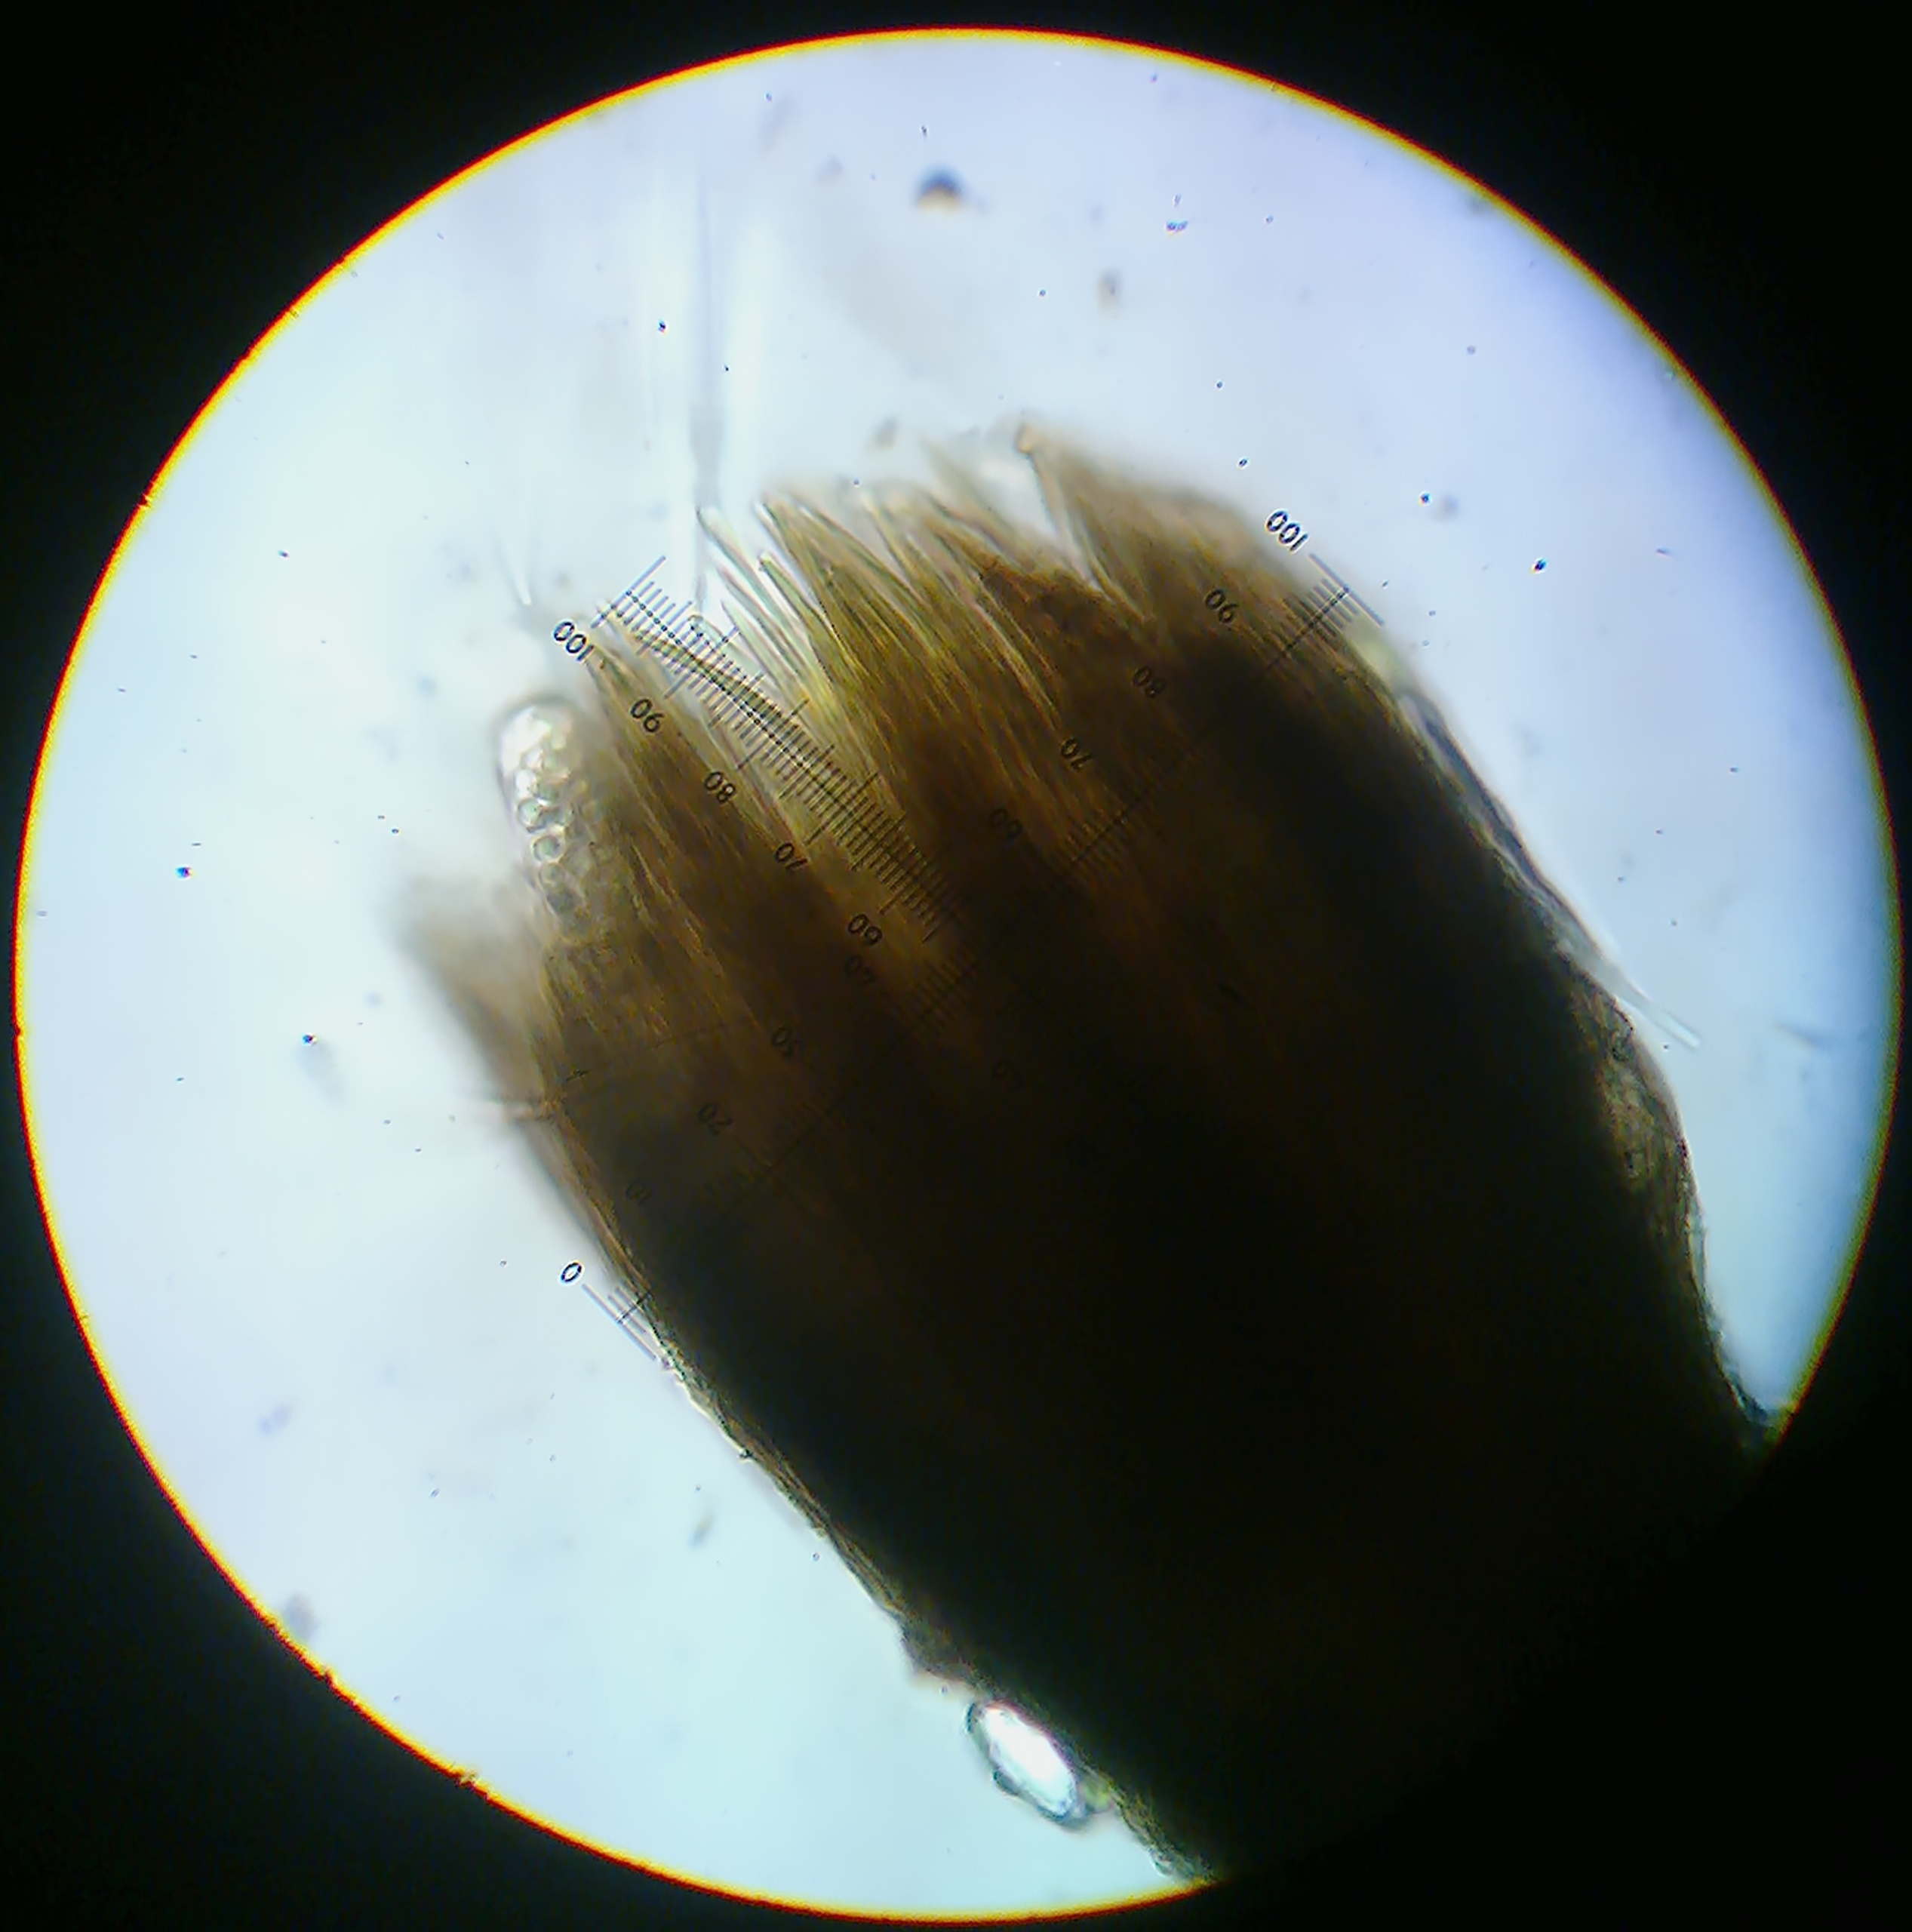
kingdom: Fungi
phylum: Ascomycota
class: Lecanoromycetes
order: Lecanorales
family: Byssolomataceae
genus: Szczawinskia
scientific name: Szczawinskia tsugae
